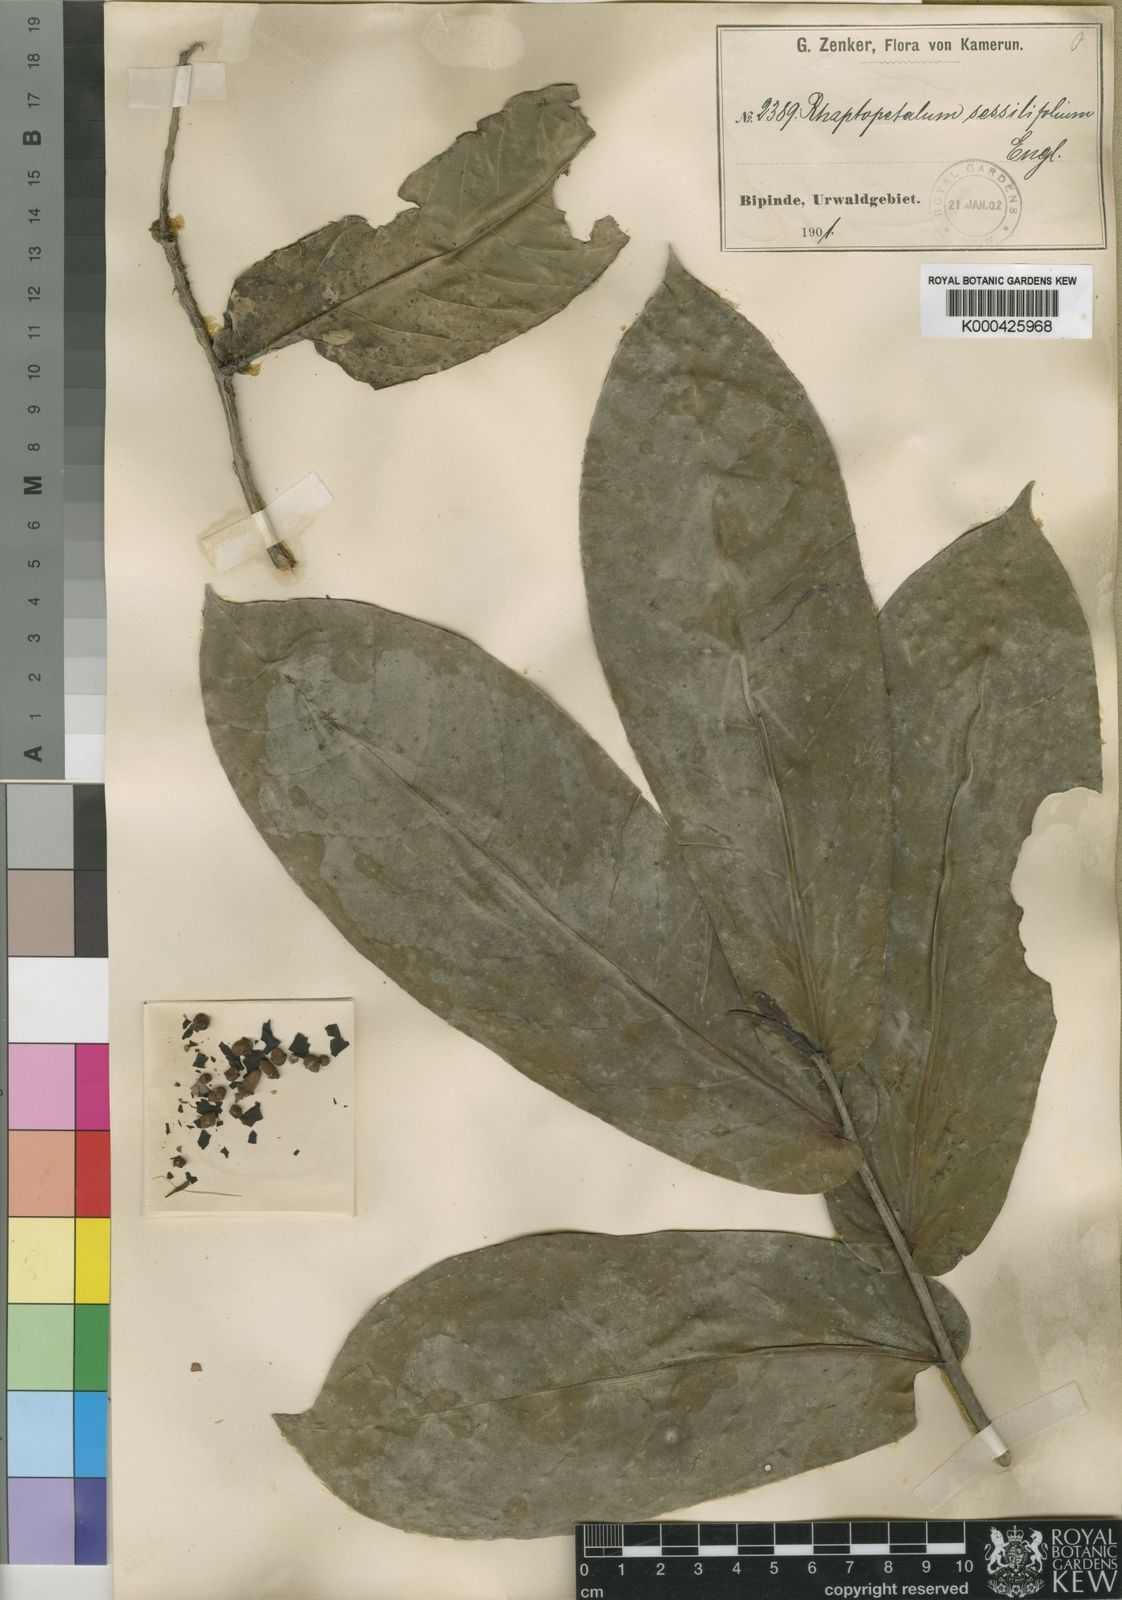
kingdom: Plantae
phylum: Tracheophyta
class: Magnoliopsida
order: Ericales
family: Lecythidaceae
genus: Rhaptopetalum
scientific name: Rhaptopetalum sessilifolium
